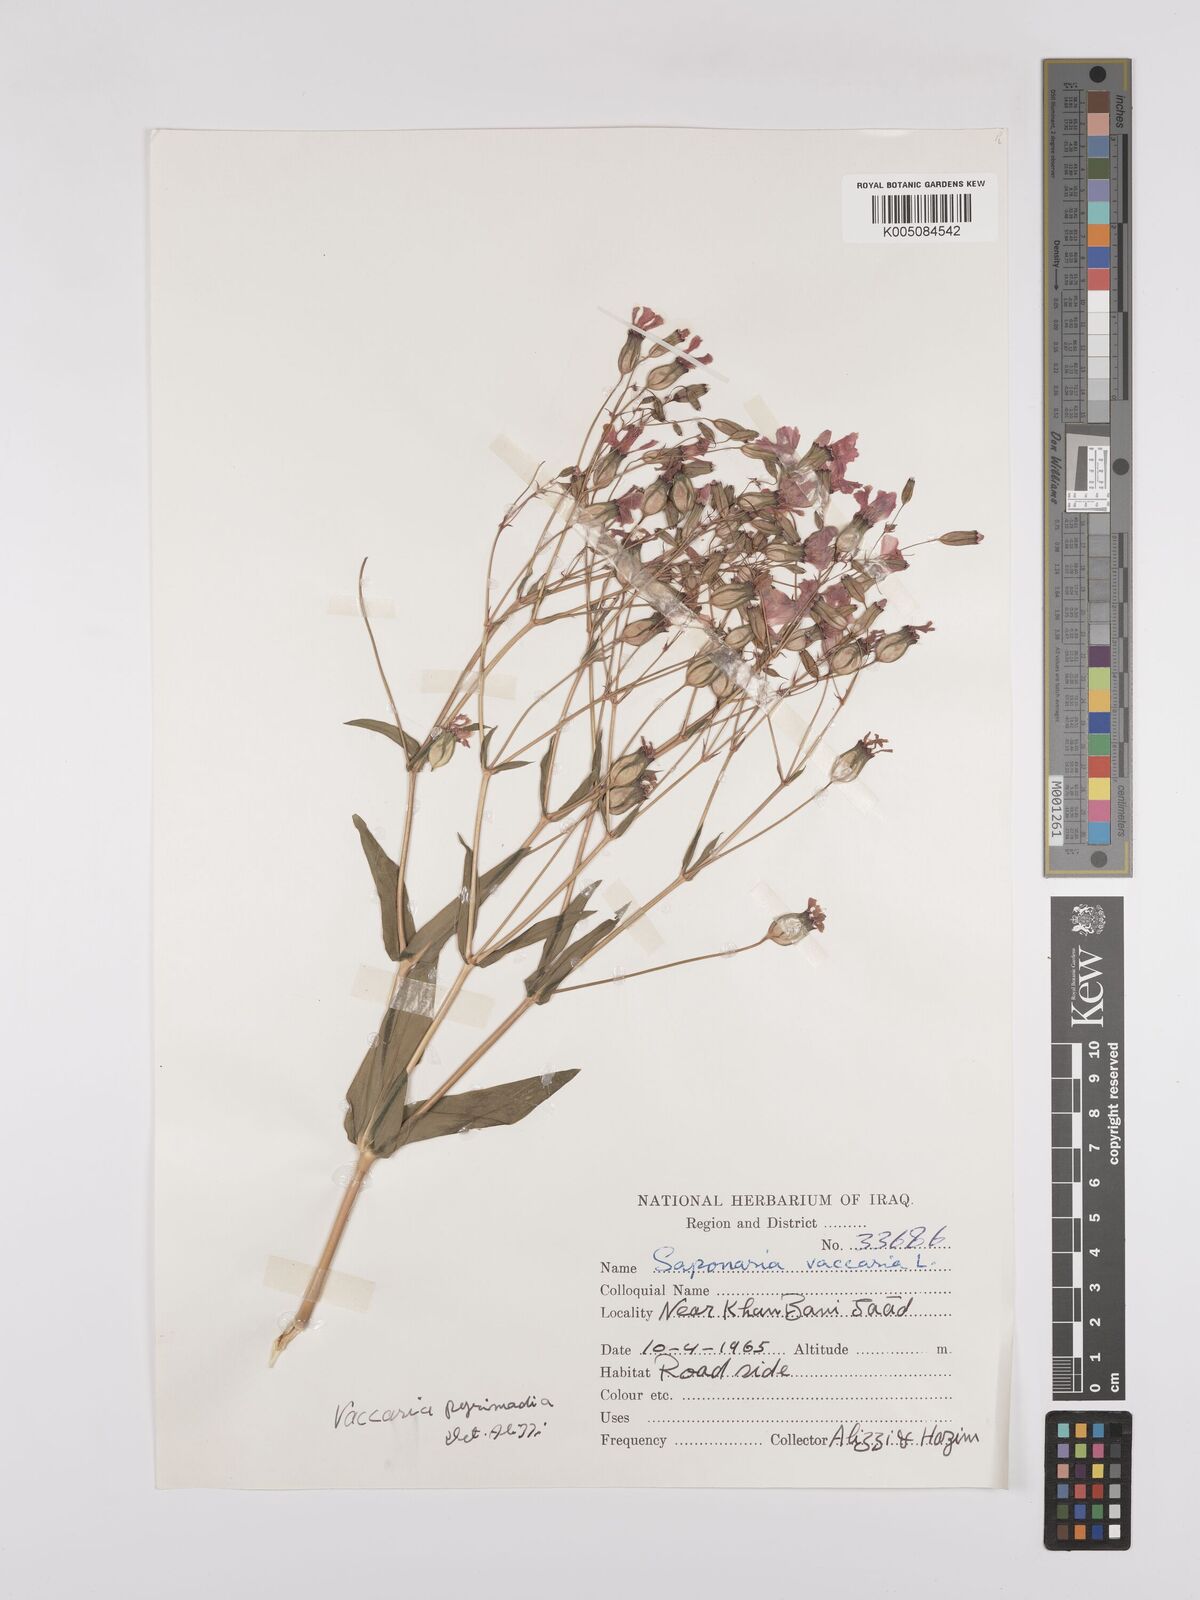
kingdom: Plantae
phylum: Tracheophyta
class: Magnoliopsida
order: Caryophyllales
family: Caryophyllaceae
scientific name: Caryophyllaceae
